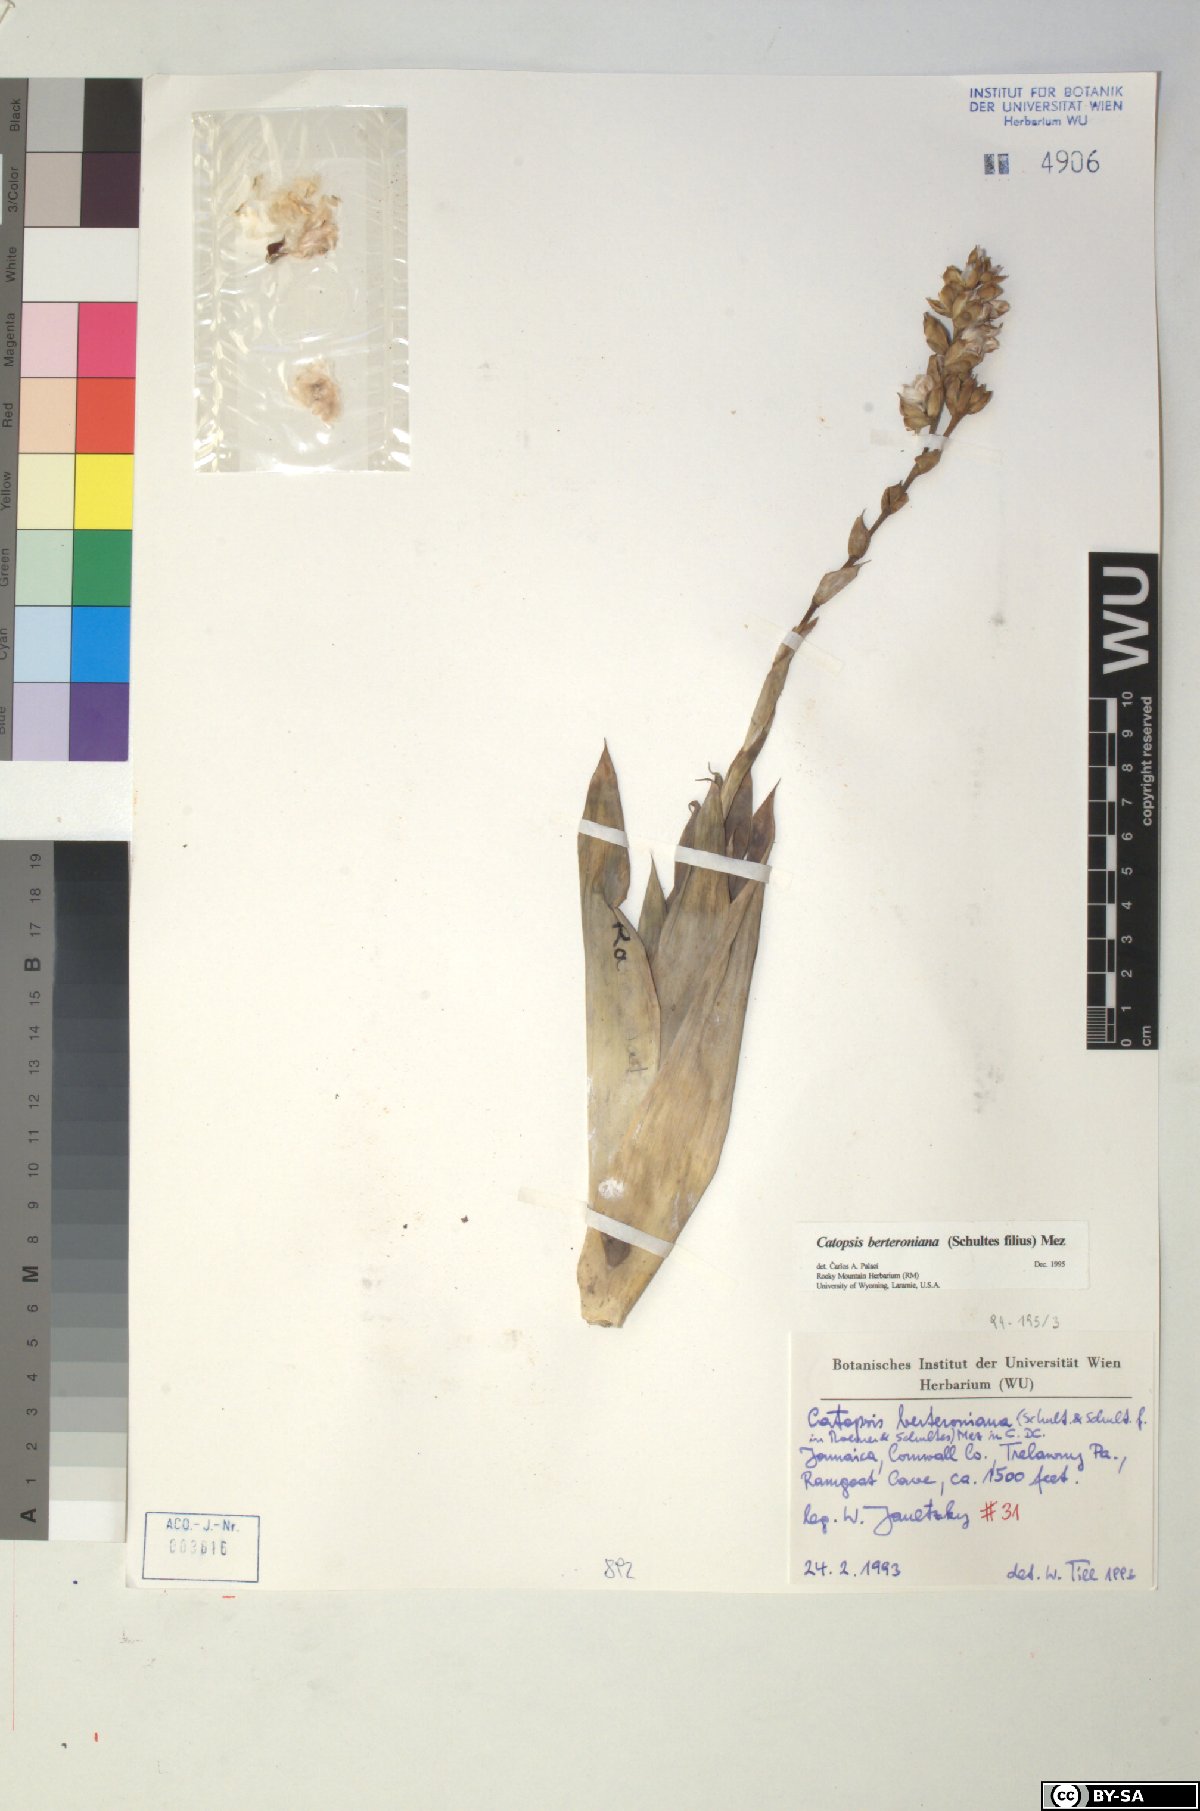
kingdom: Plantae
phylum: Tracheophyta
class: Liliopsida
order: Poales
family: Bromeliaceae
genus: Catopsis
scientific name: Catopsis berteroniana
